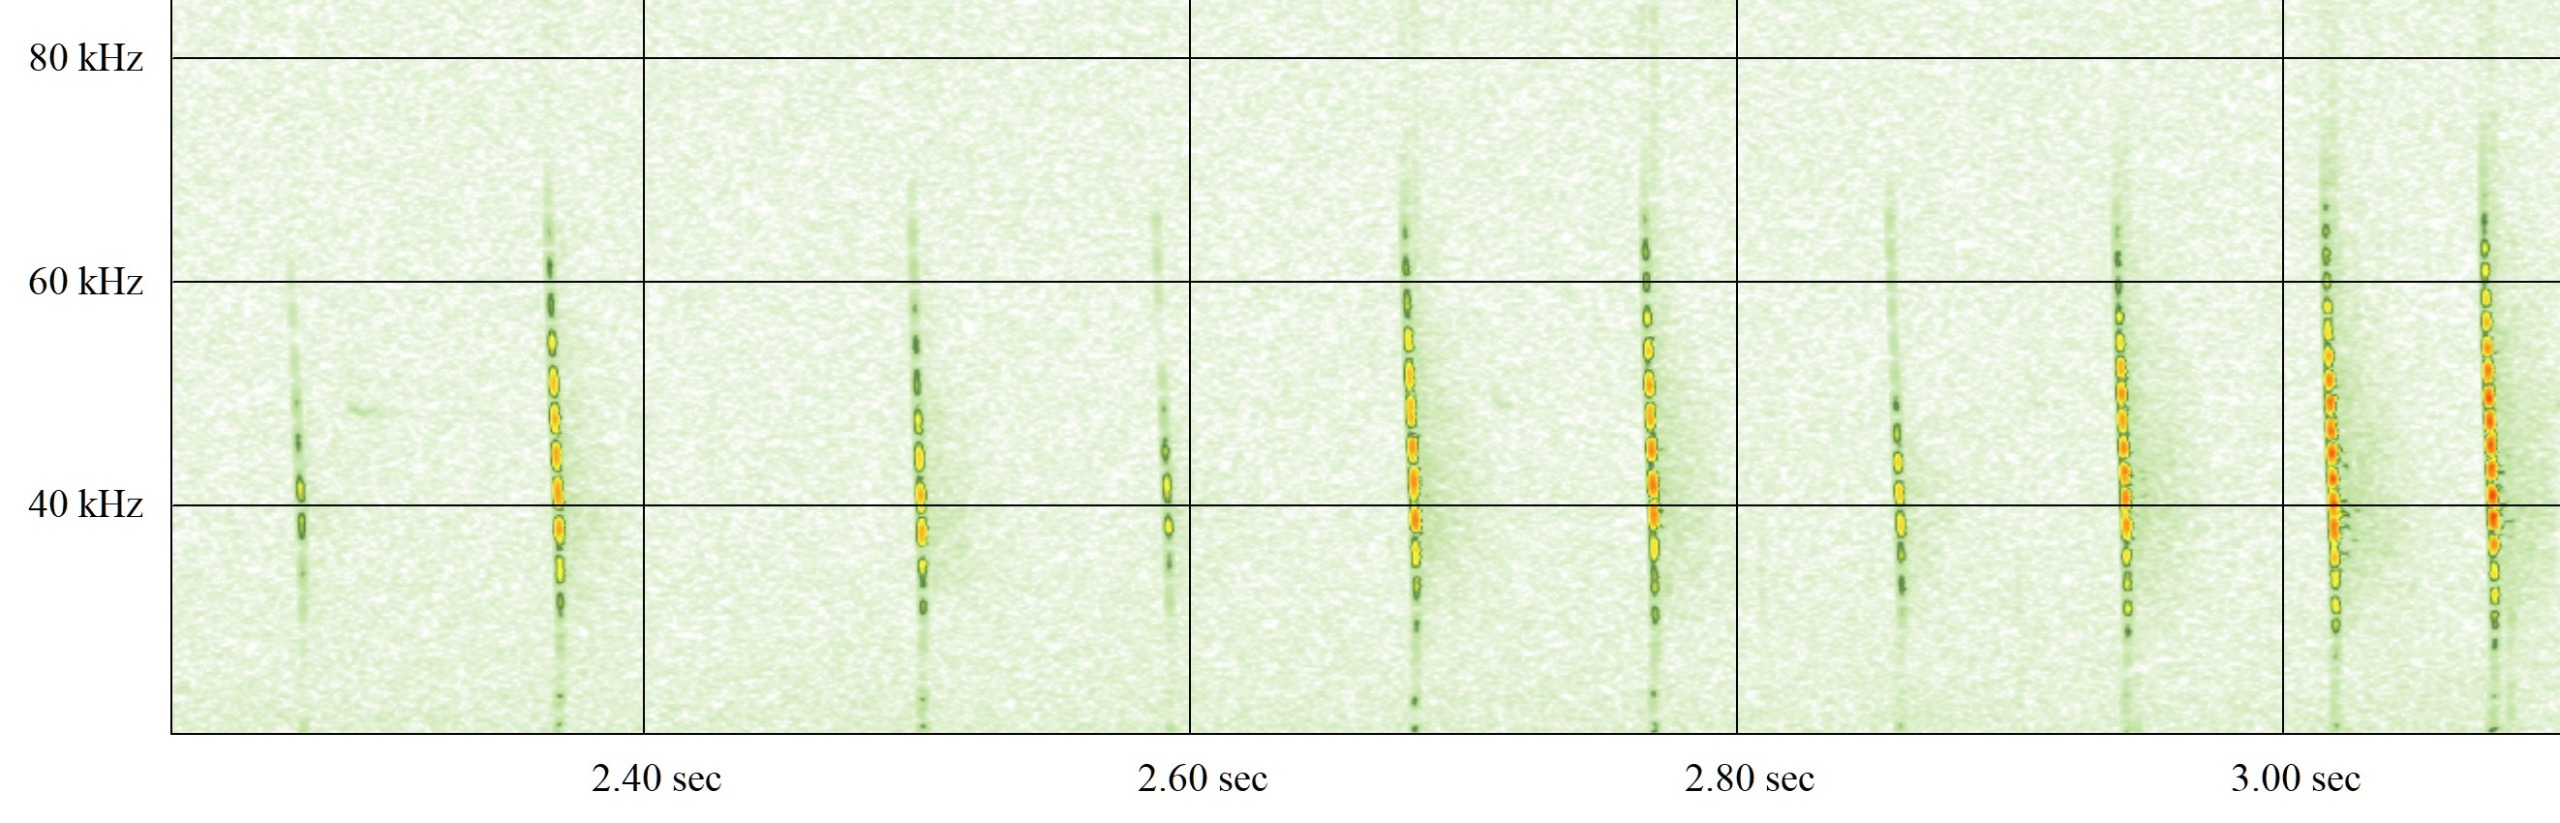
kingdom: Animalia
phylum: Chordata
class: Mammalia
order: Chiroptera
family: Vespertilionidae
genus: Myotis
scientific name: Myotis daubentonii
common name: Vandflagermus
